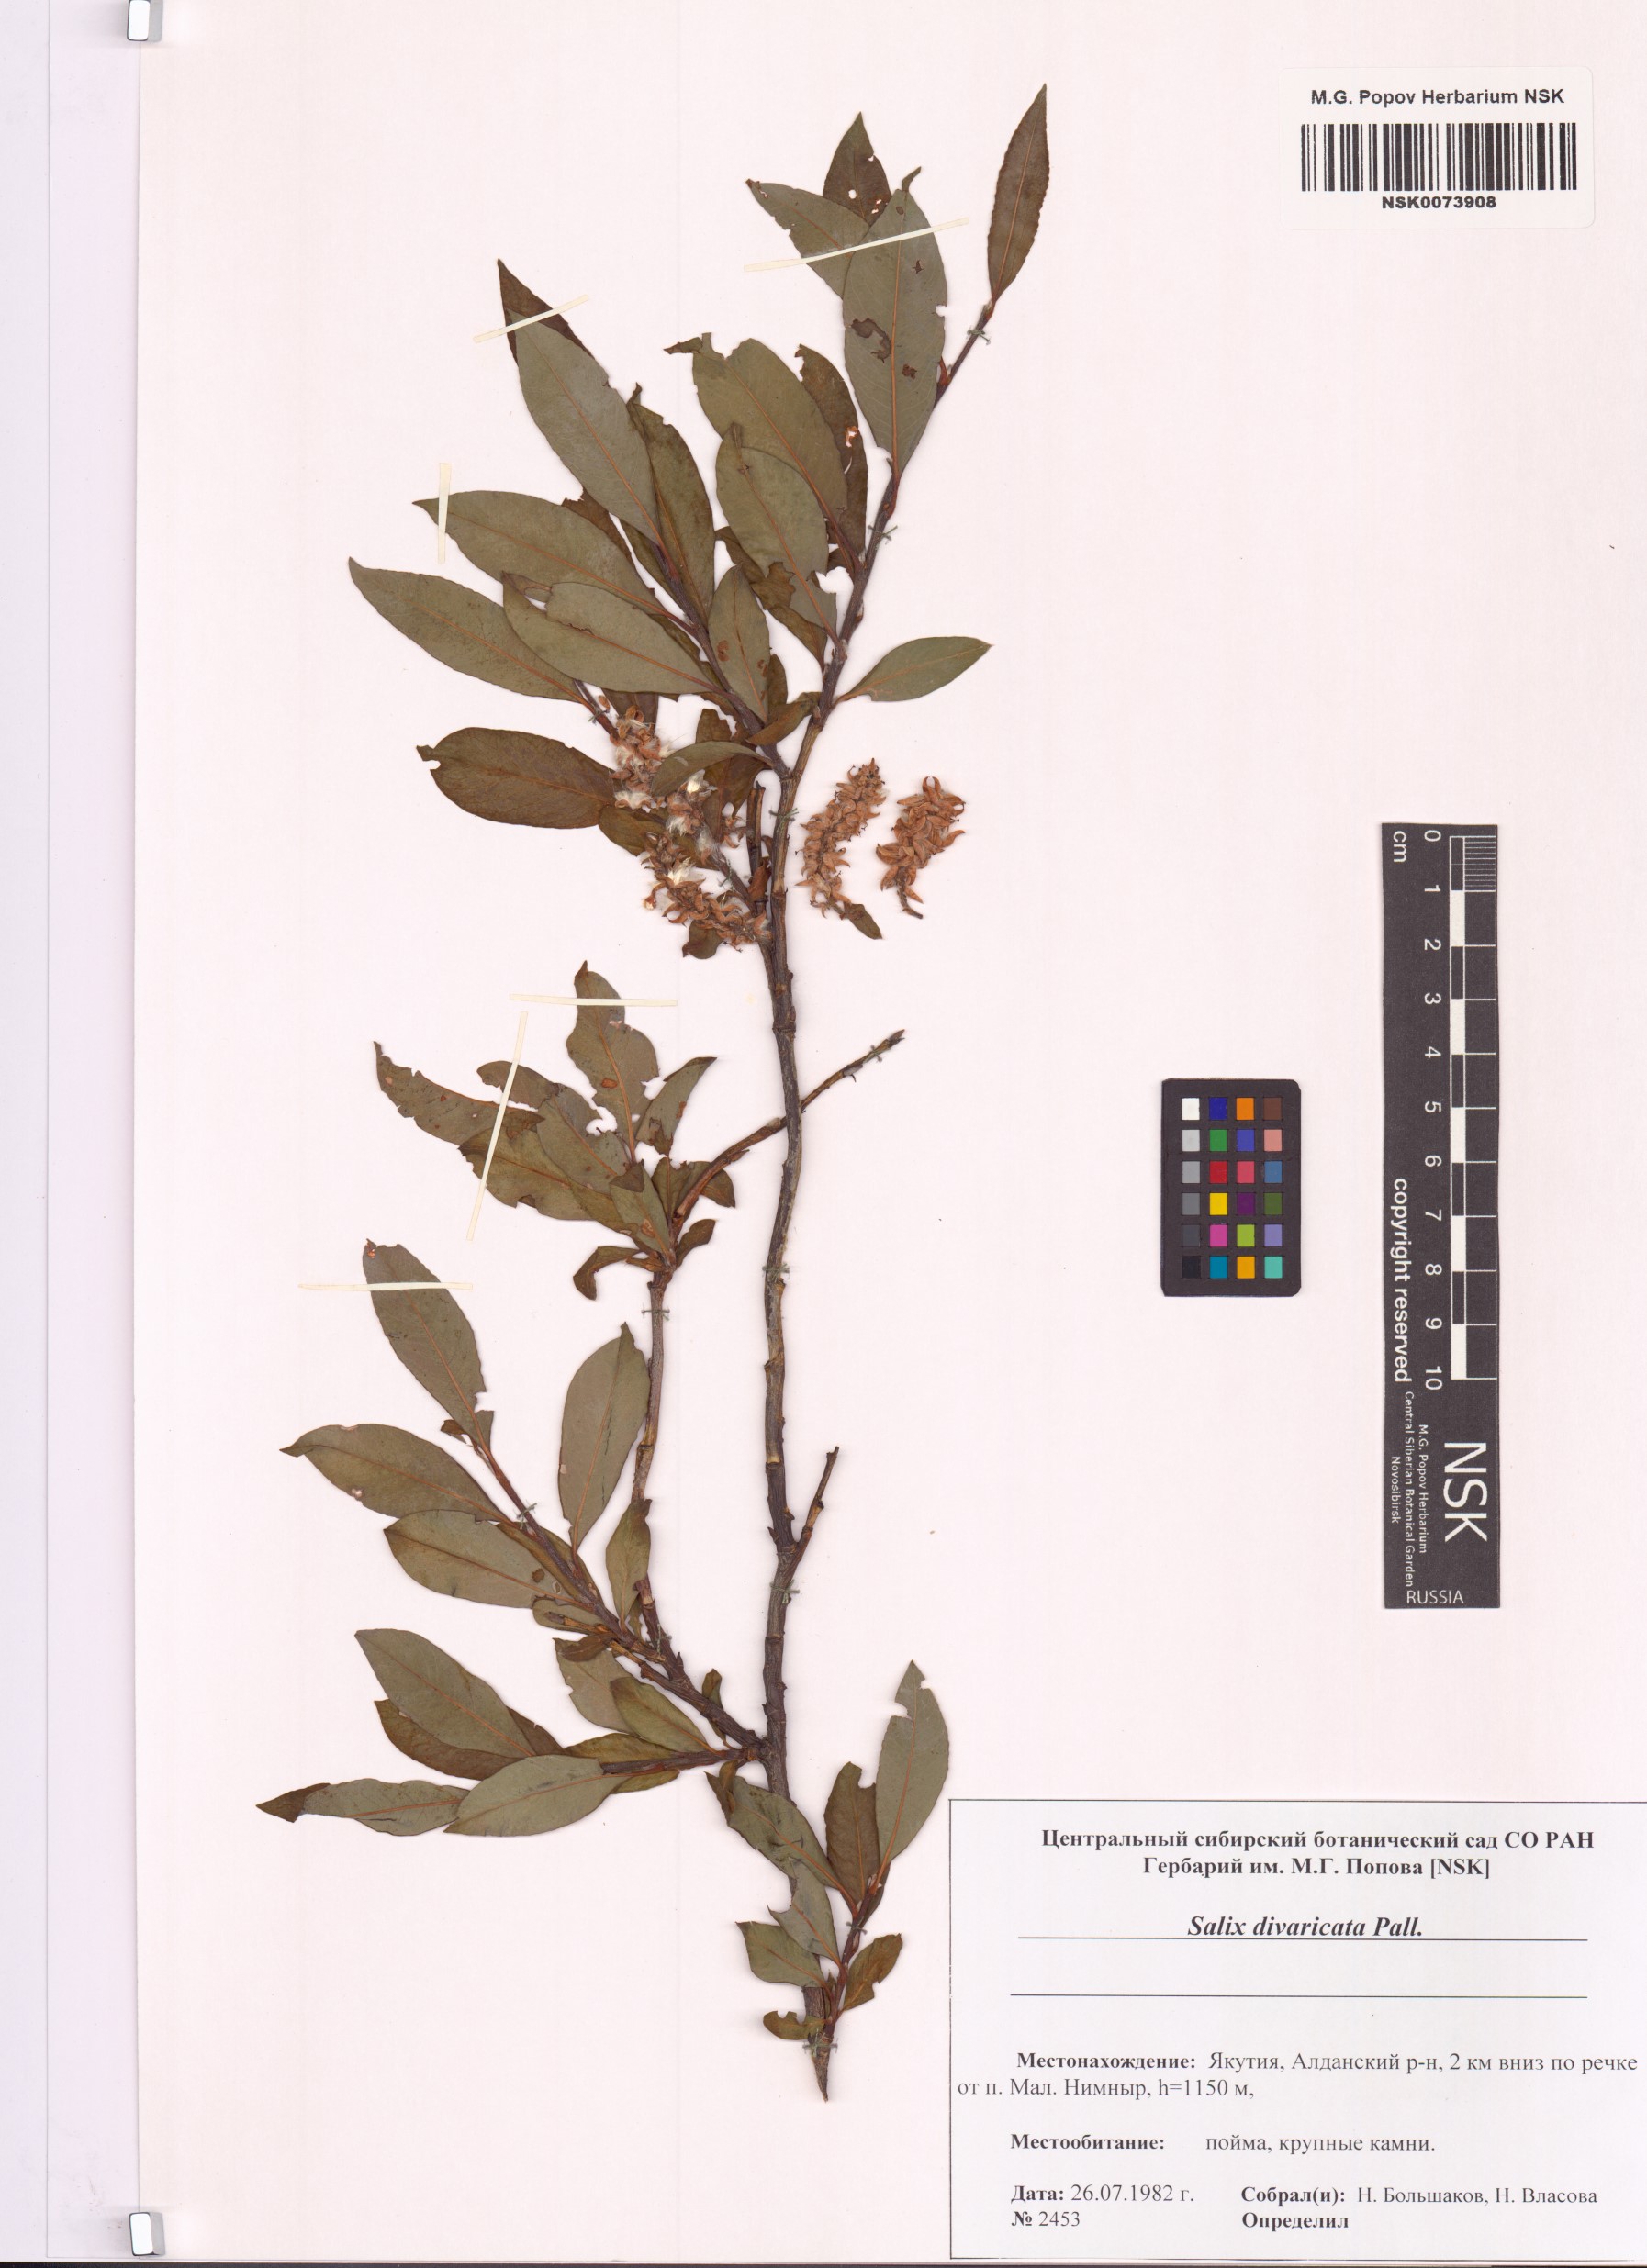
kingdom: Plantae
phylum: Tracheophyta
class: Magnoliopsida
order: Malpighiales
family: Salicaceae
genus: Salix
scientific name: Salix divaricata
